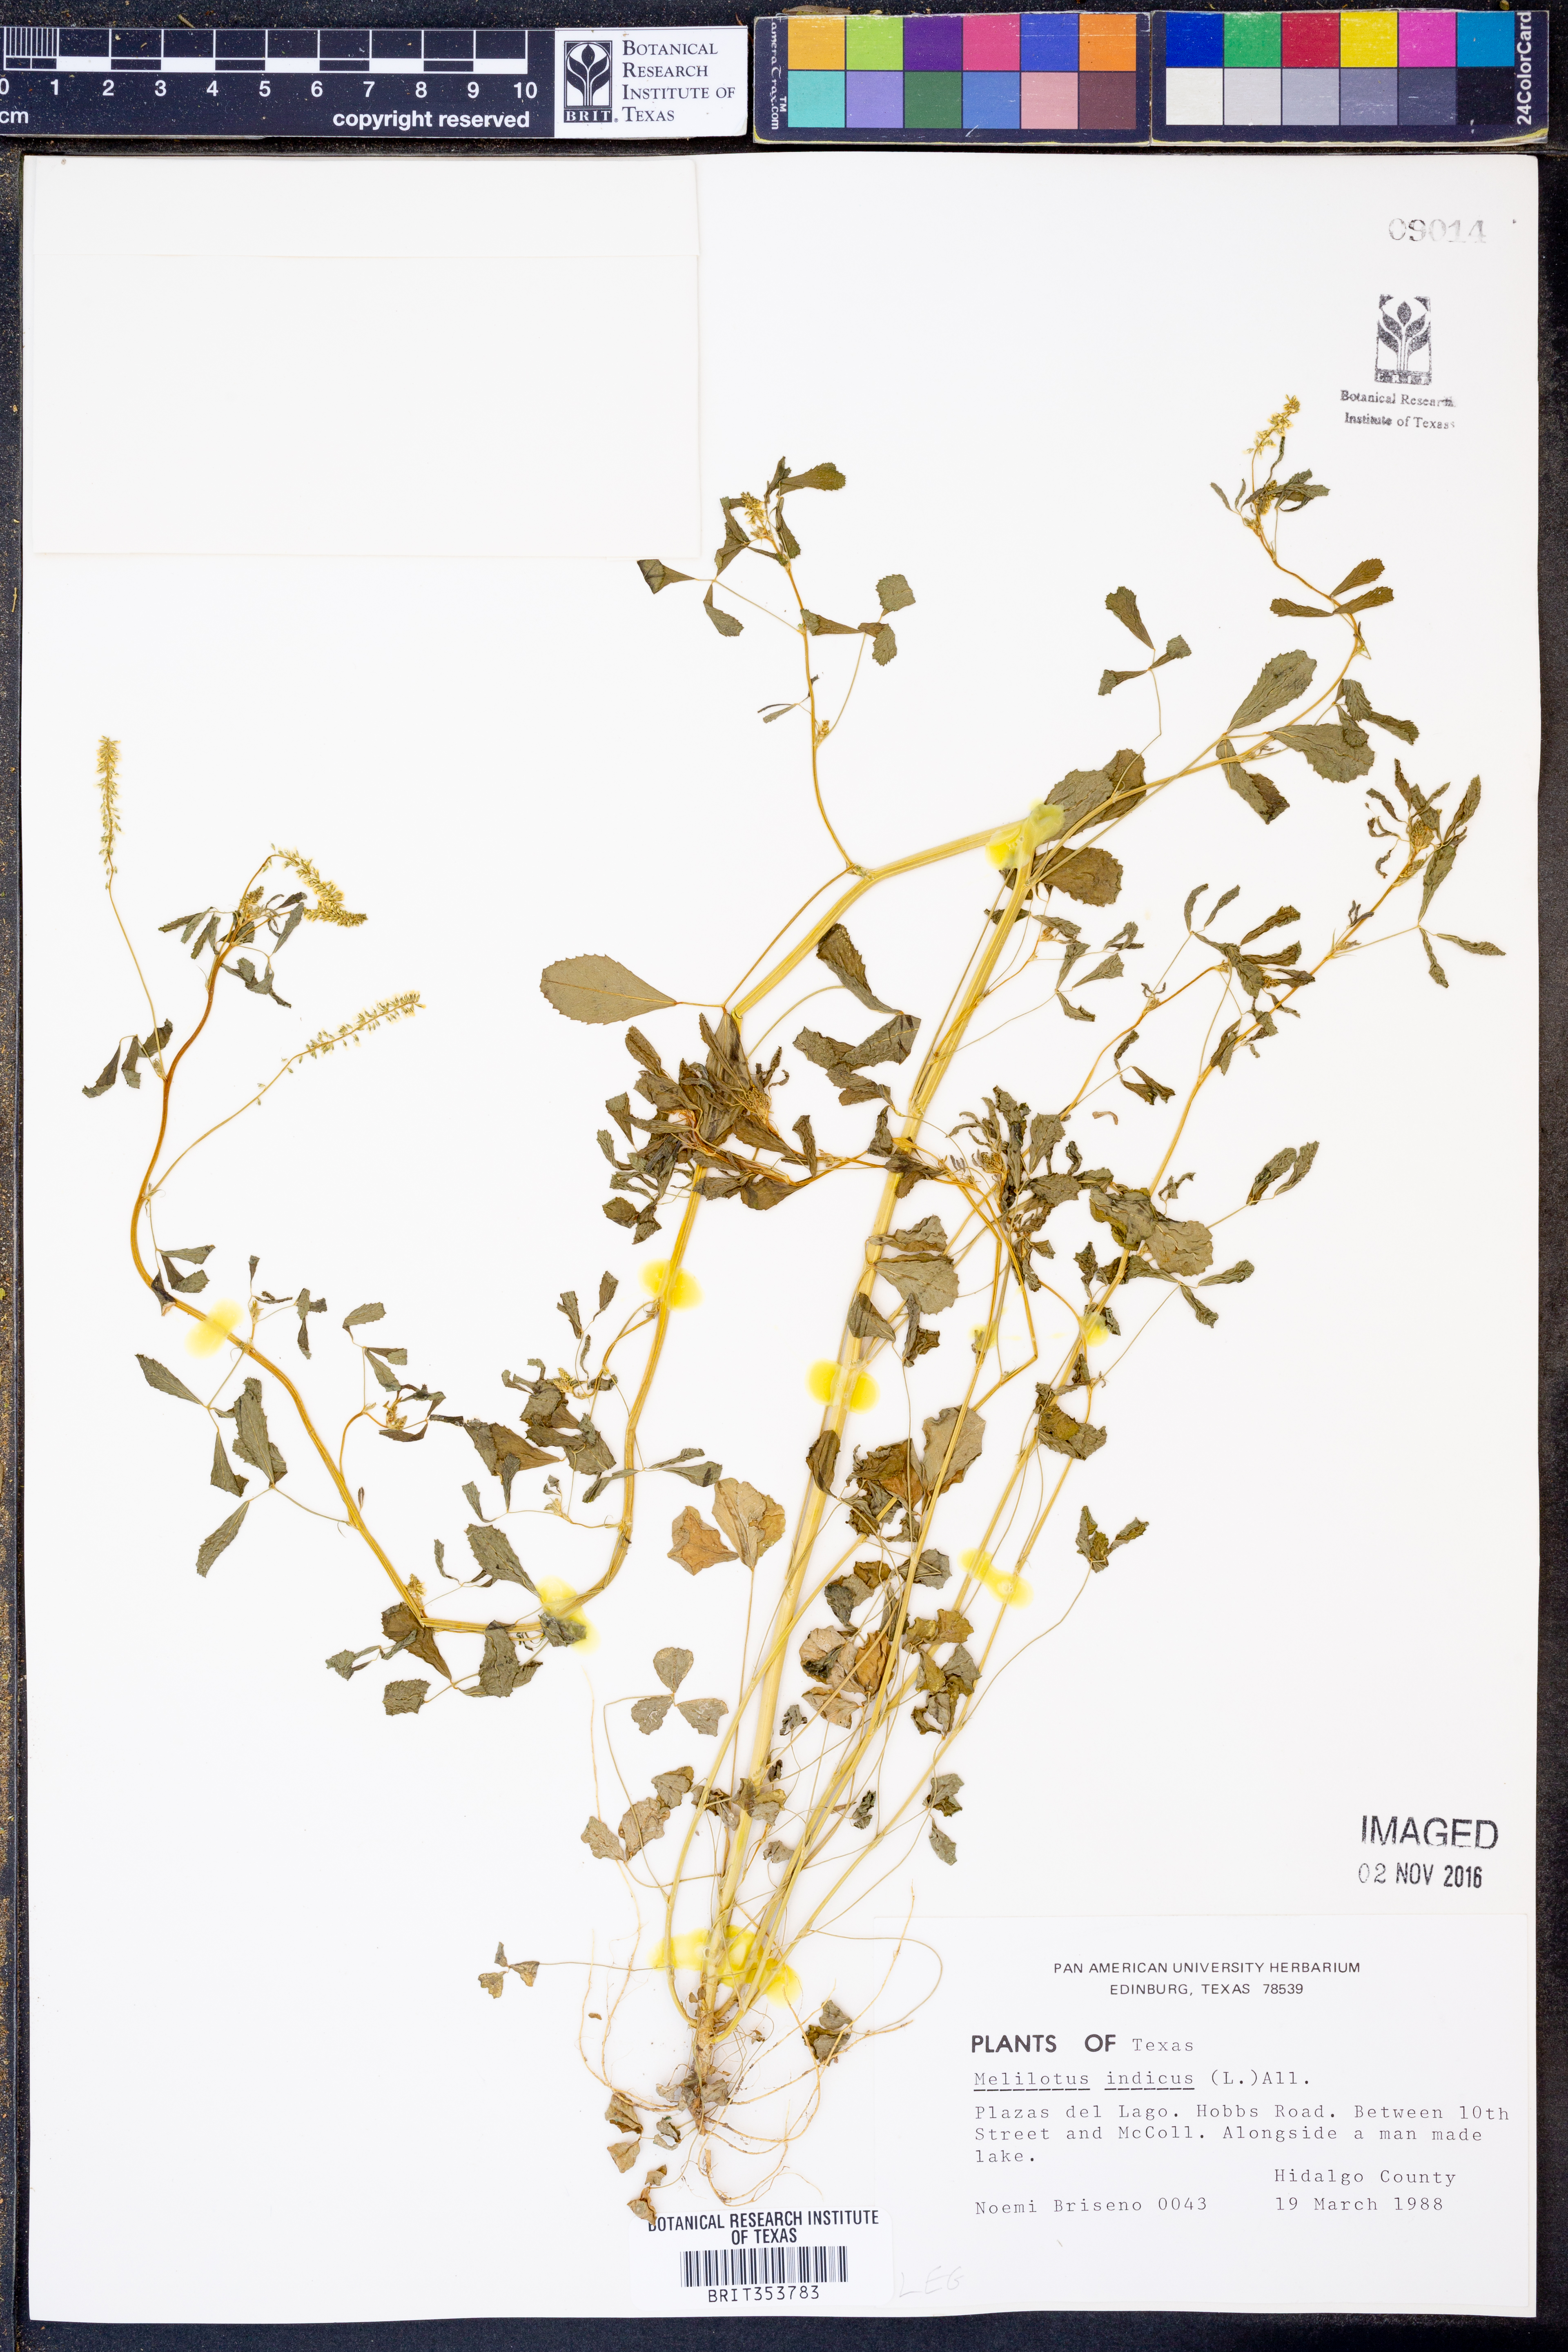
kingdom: Plantae
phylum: Tracheophyta
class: Magnoliopsida
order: Fabales
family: Fabaceae
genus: Melilotus
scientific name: Melilotus indicus
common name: Small melilot
